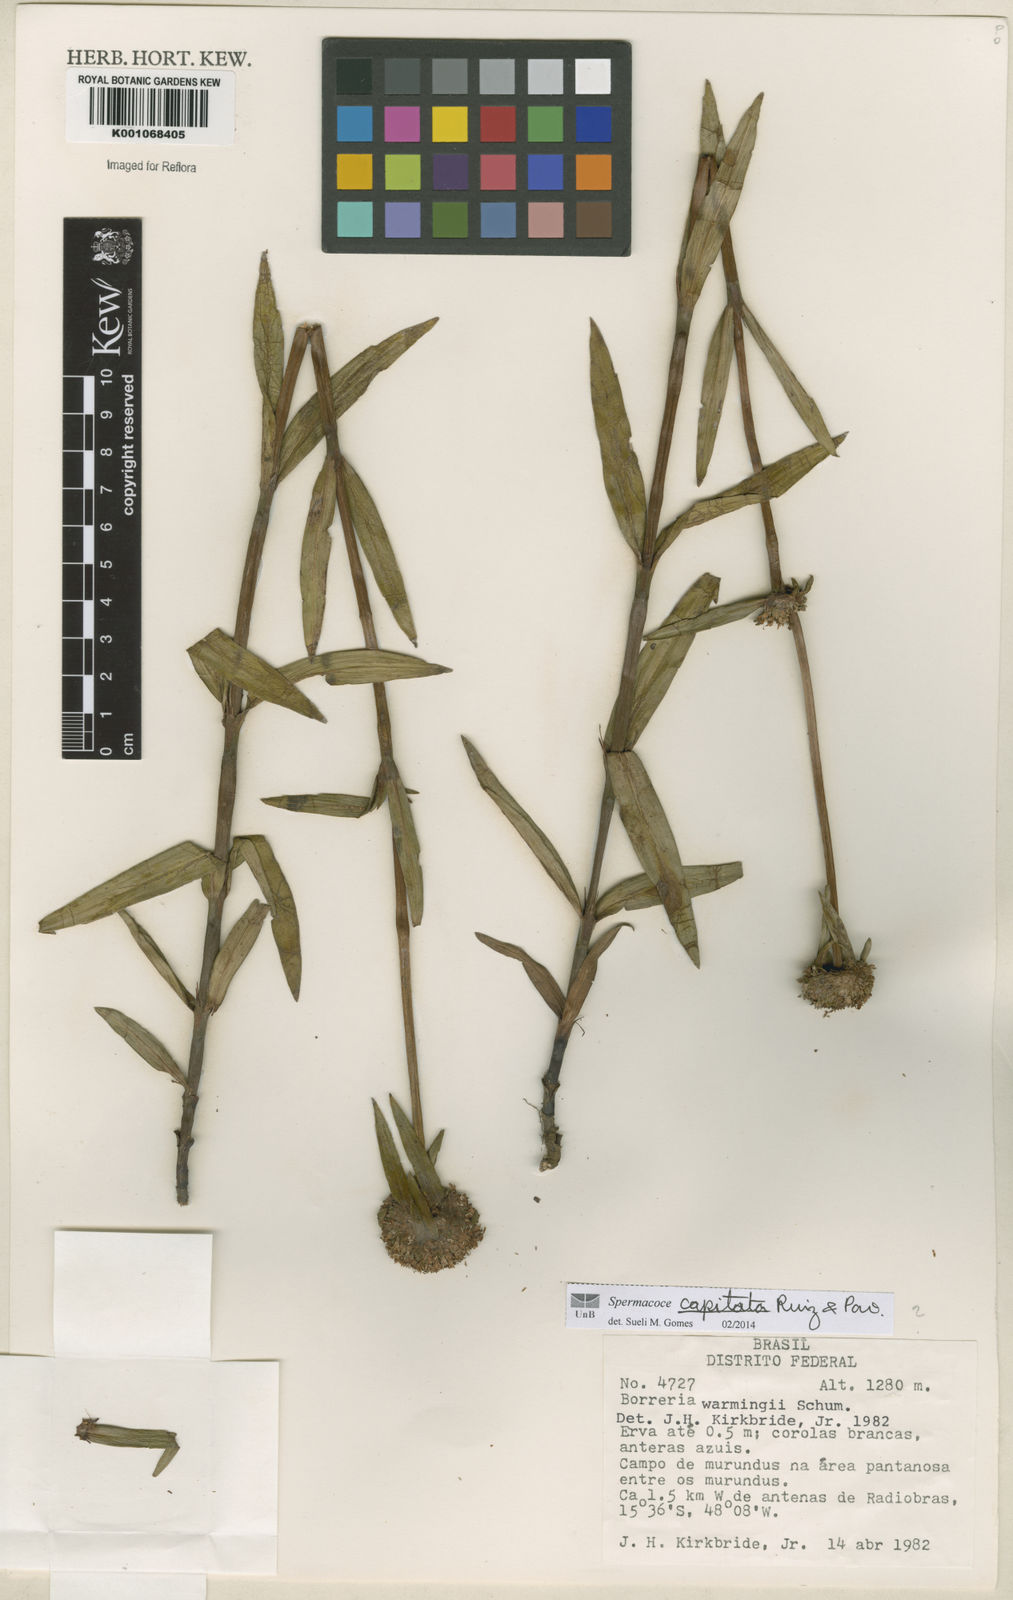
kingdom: Plantae
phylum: Tracheophyta
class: Magnoliopsida
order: Gentianales
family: Rubiaceae
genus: Spermacoce
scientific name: Spermacoce capitata
